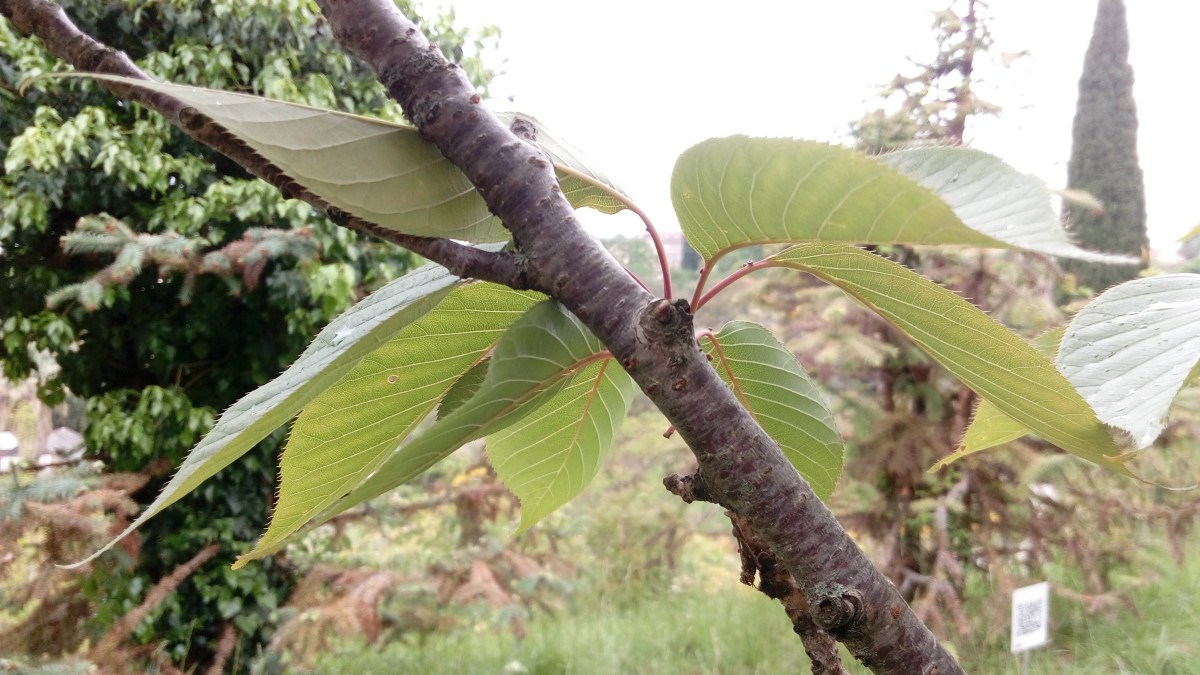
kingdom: Plantae
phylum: Tracheophyta
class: Magnoliopsida
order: Rosales
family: Rosaceae
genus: Prunus
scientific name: Prunus serrulata
